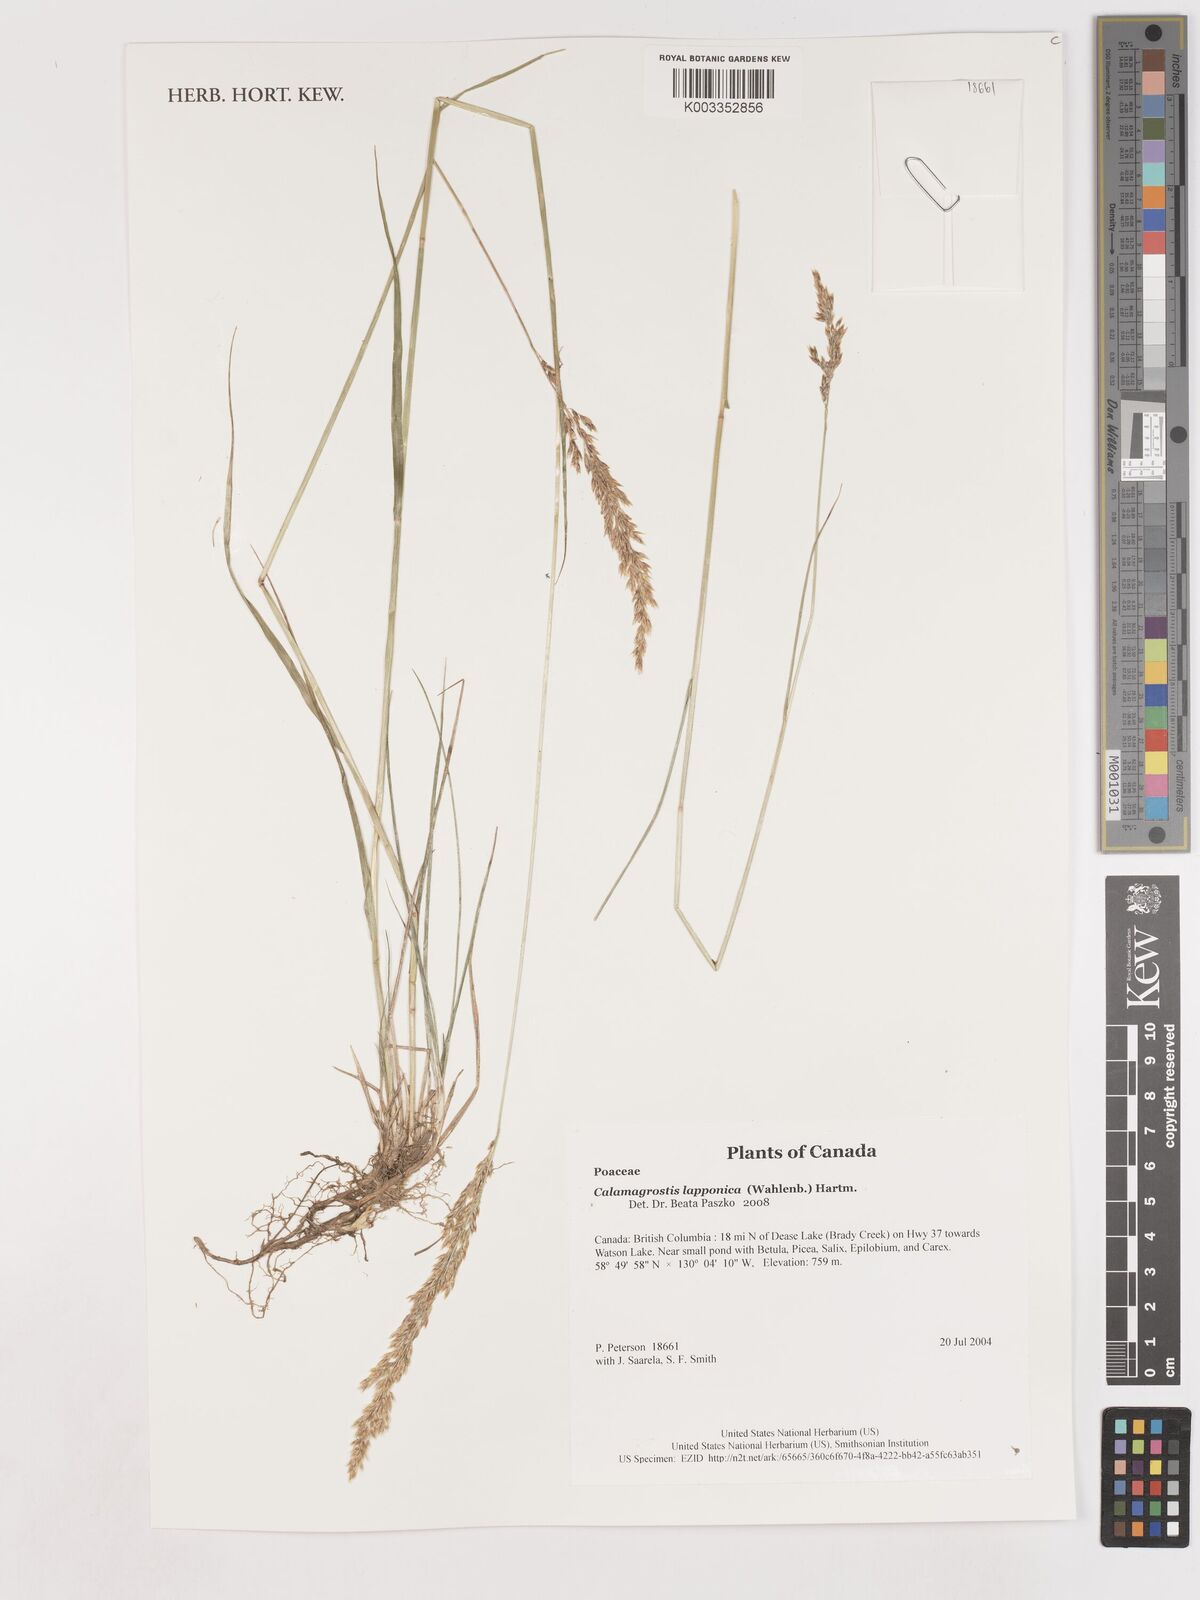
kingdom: Plantae
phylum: Tracheophyta
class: Liliopsida
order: Poales
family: Poaceae
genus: Calamagrostis
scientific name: Calamagrostis lapponica
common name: Lapland reedgrass
